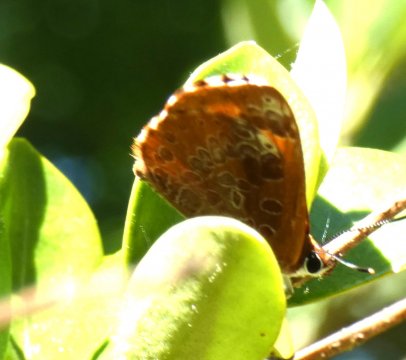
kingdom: Animalia
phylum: Arthropoda
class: Insecta
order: Lepidoptera
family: Lycaenidae
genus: Feniseca
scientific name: Feniseca tarquinius
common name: Harvester
